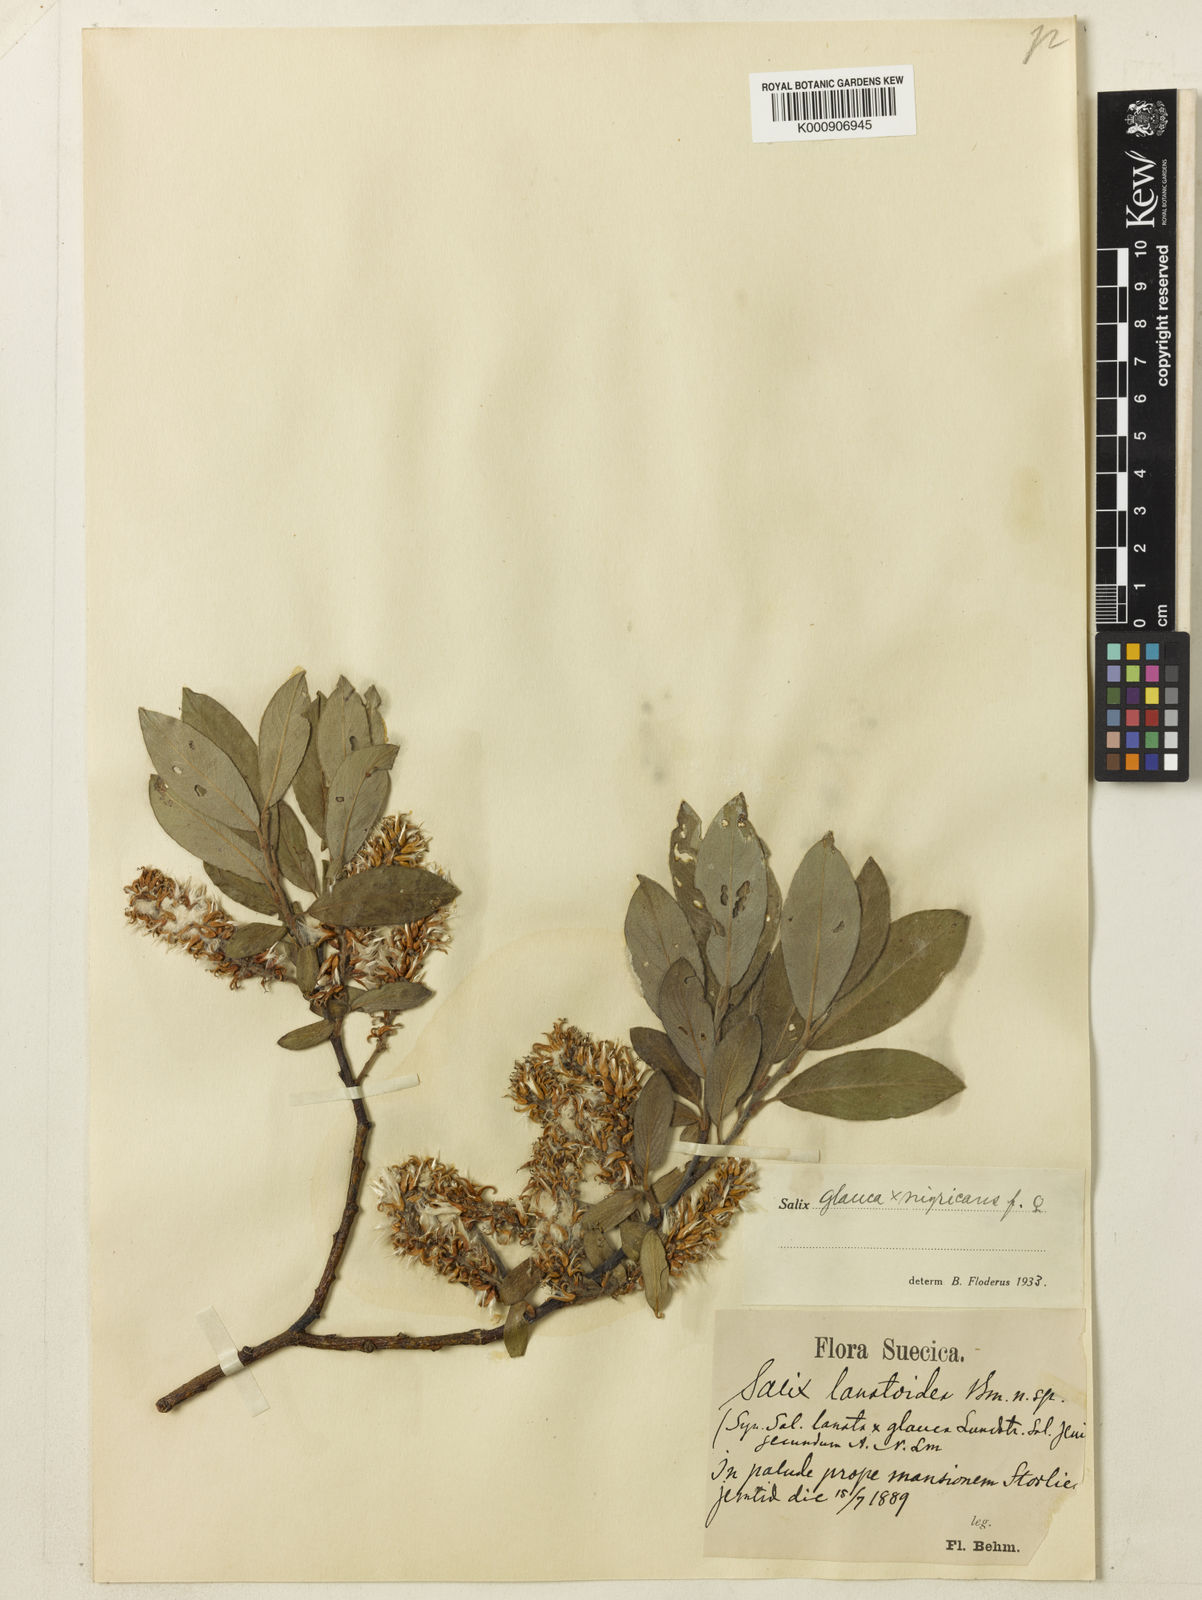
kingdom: Plantae
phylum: Tracheophyta
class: Magnoliopsida
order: Malpighiales
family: Salicaceae
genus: Salix
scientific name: Salix glauca
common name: Glaucous willow
